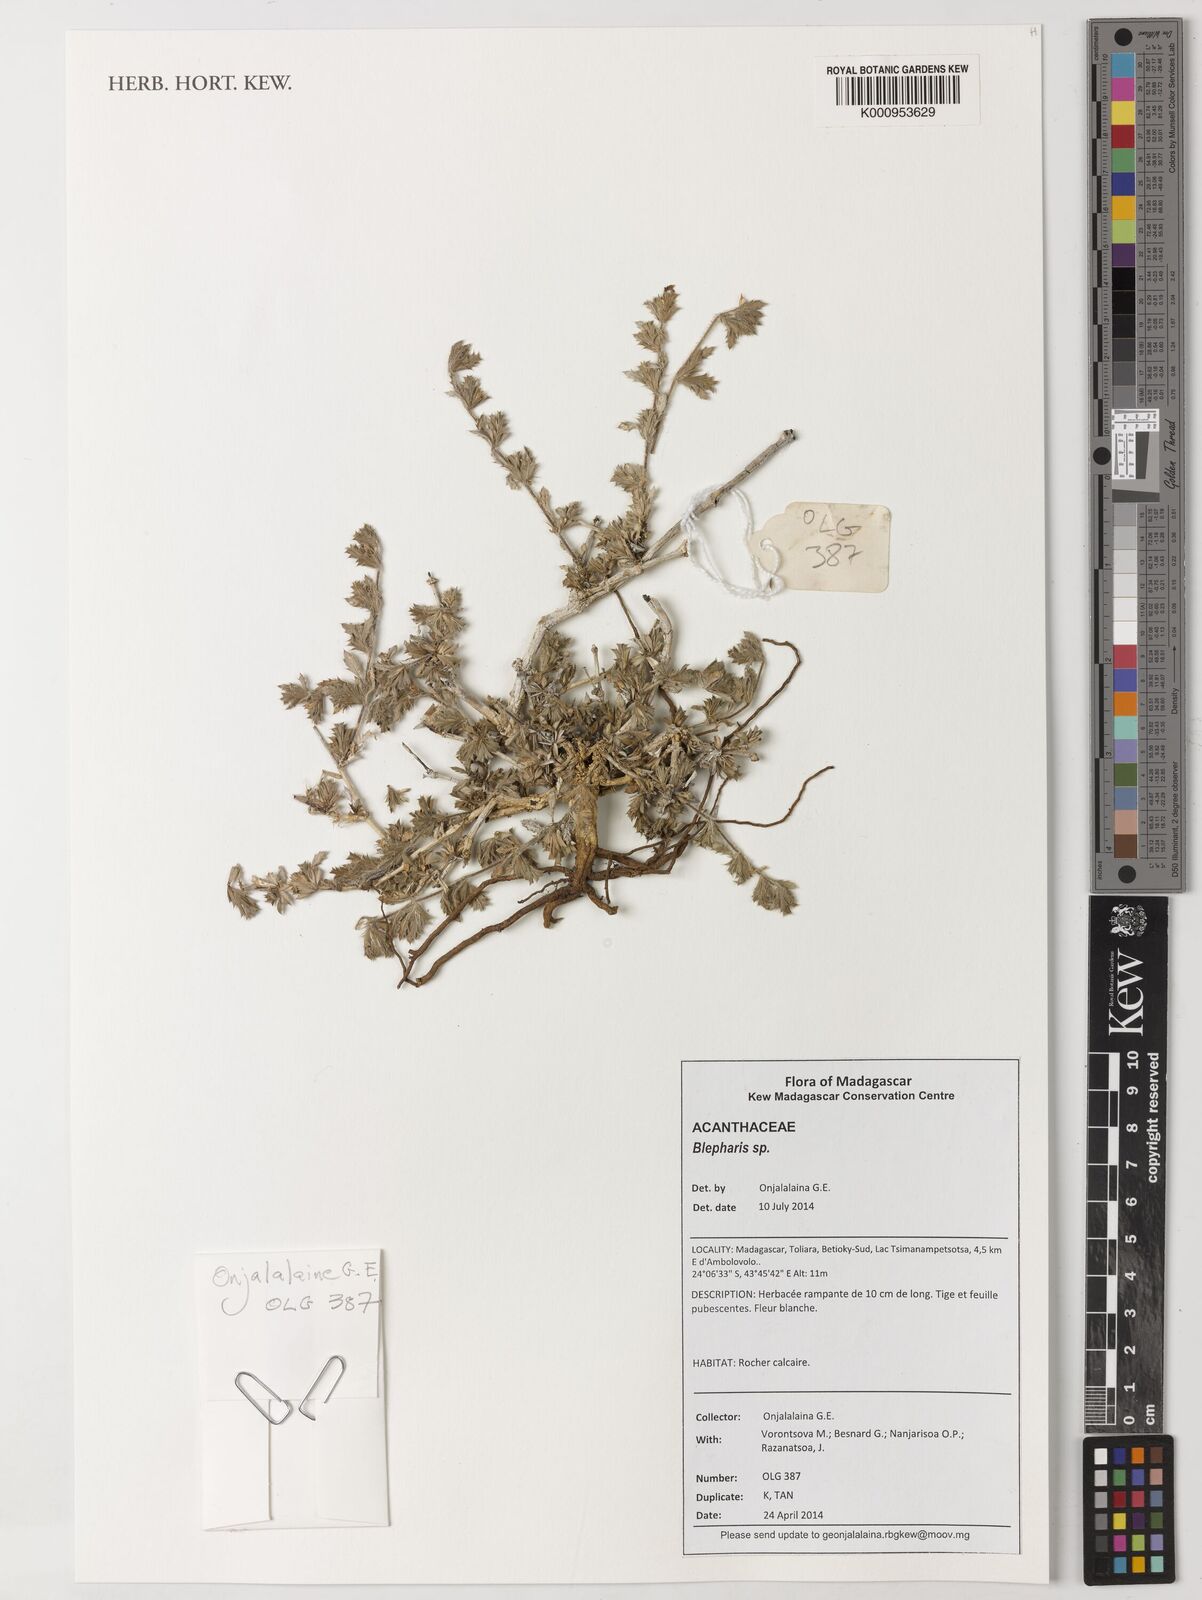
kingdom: Plantae
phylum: Tracheophyta
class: Magnoliopsida
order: Lamiales
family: Acanthaceae
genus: Stenandriopsis
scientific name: Stenandriopsis keraudrenae
